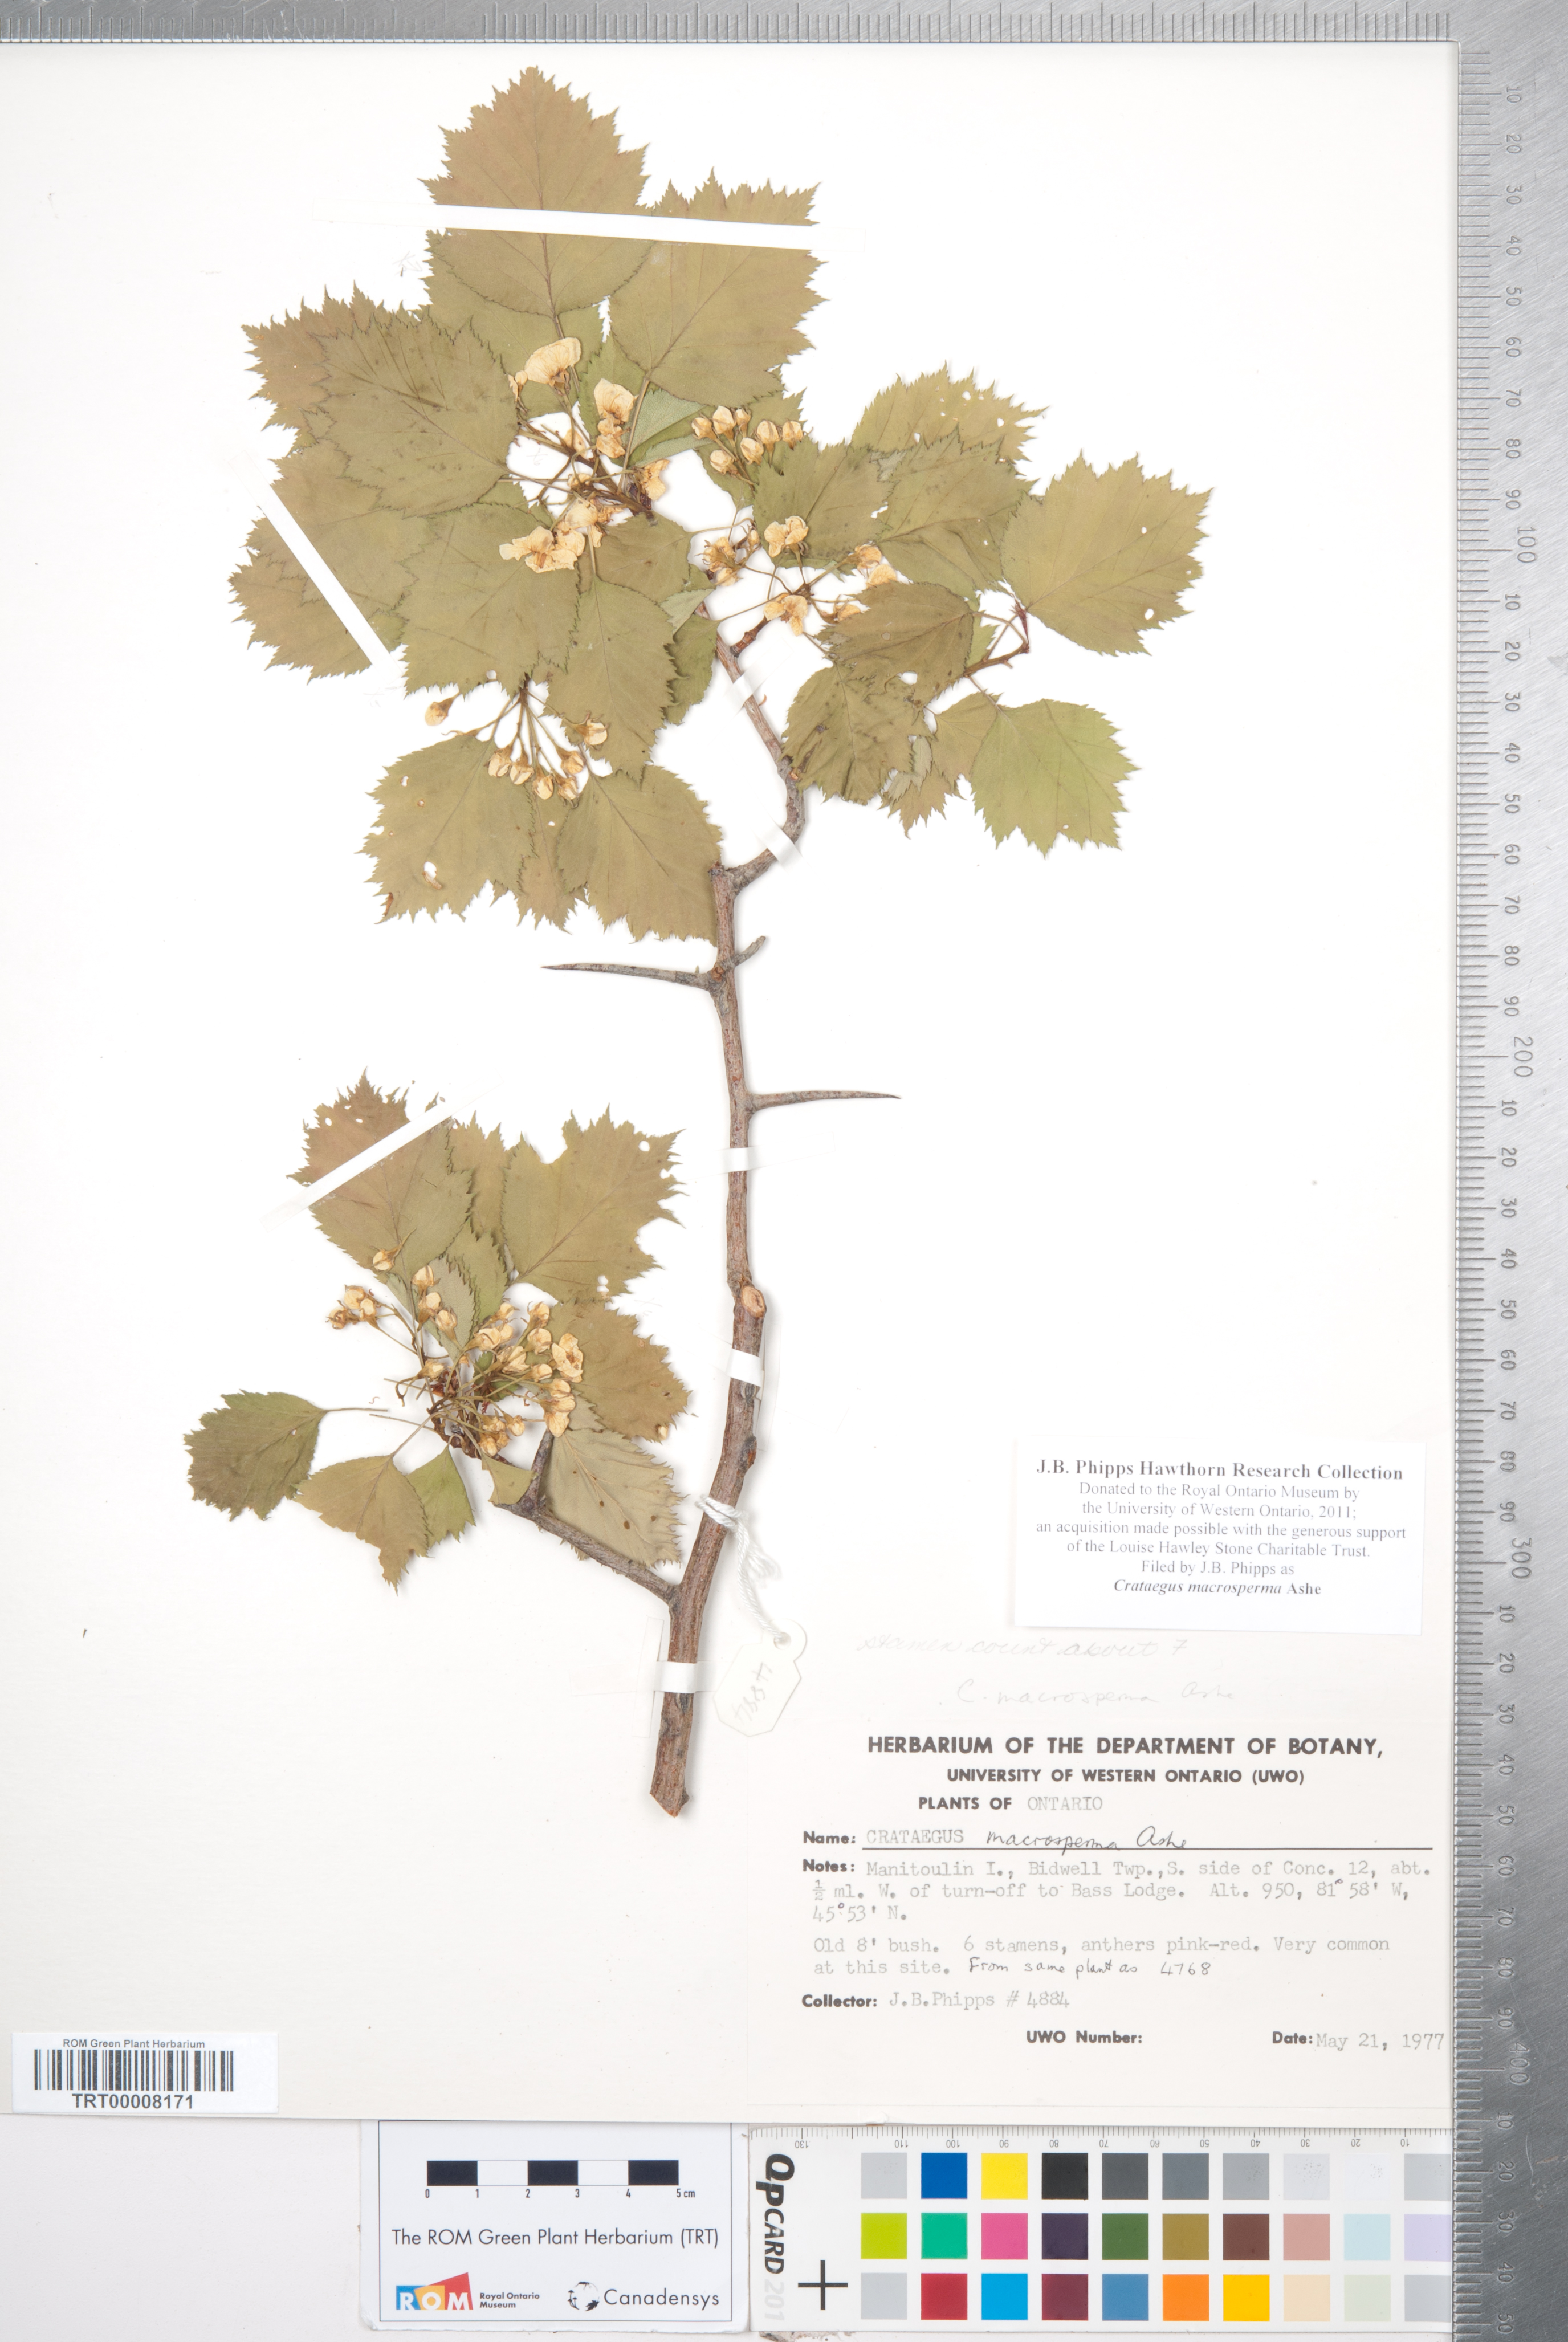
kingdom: Plantae
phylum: Tracheophyta
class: Magnoliopsida
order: Rosales
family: Rosaceae
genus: Crataegus
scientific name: Crataegus macrosperma
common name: Variable hawthorn
